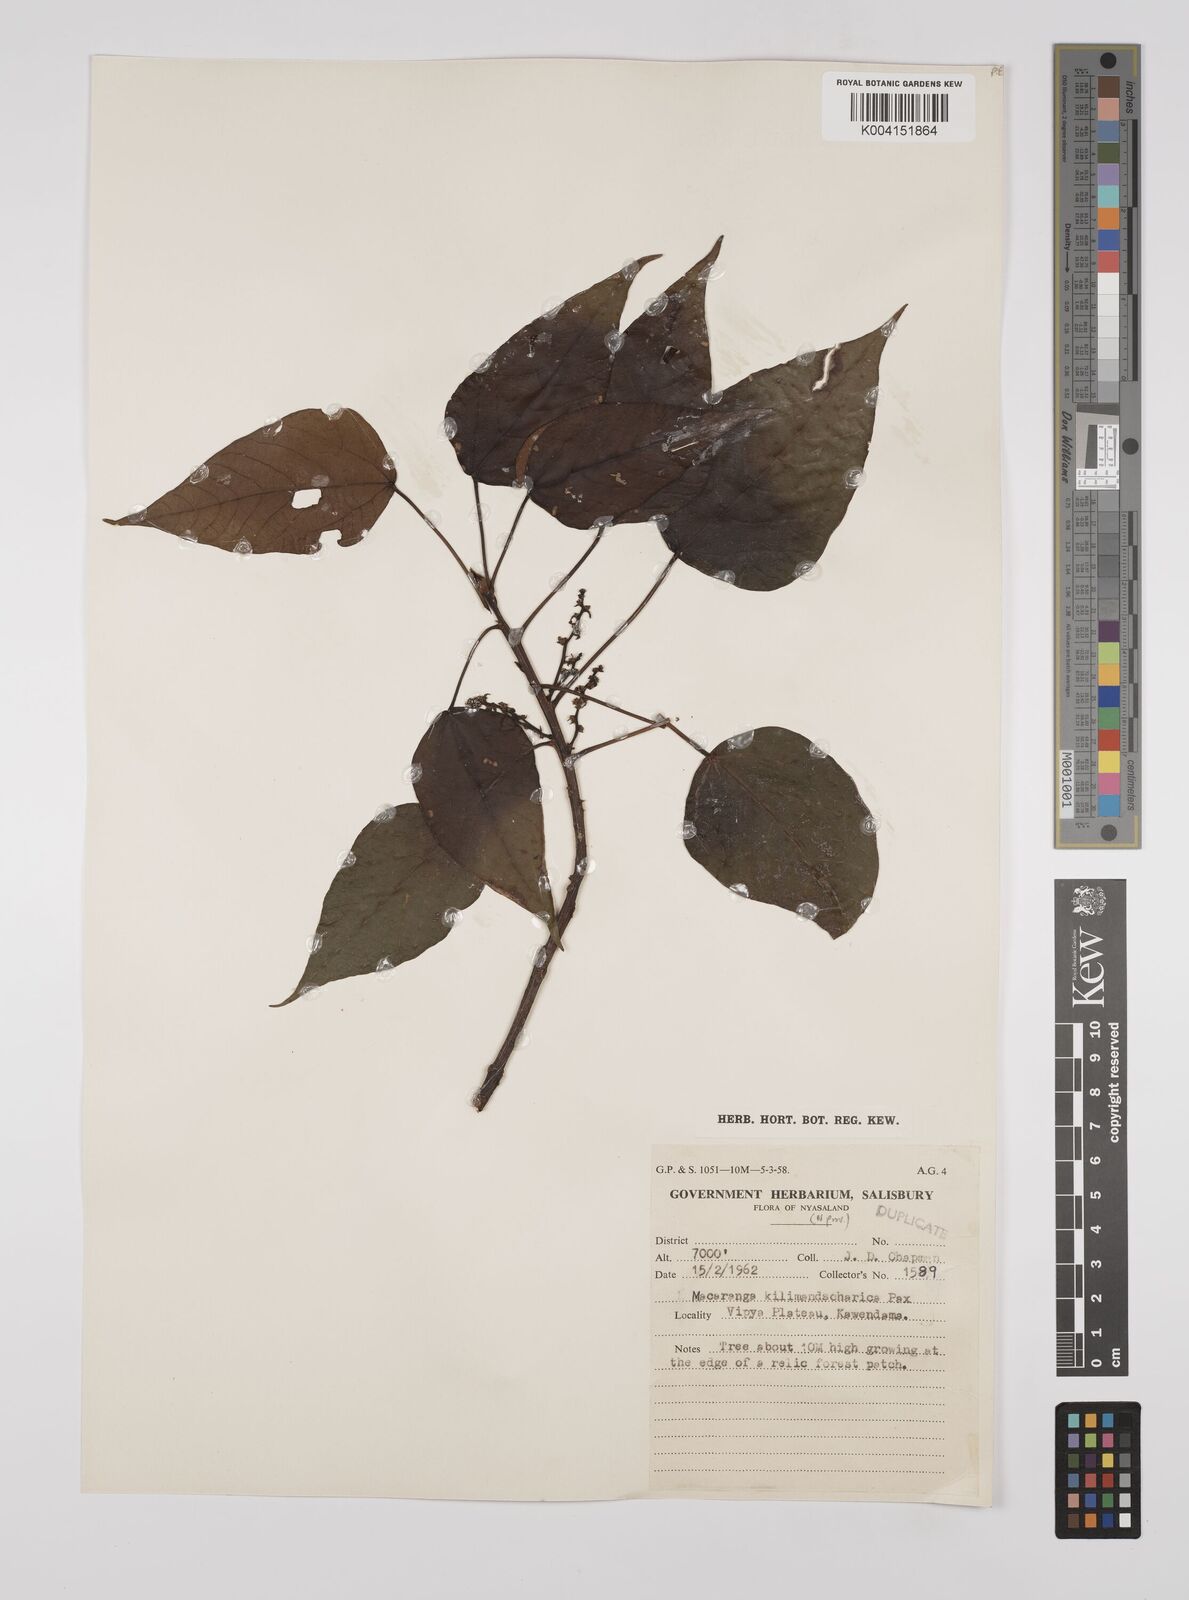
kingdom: Plantae
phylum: Tracheophyta
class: Magnoliopsida
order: Malpighiales
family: Euphorbiaceae
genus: Macaranga
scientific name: Macaranga kilimandscharica
